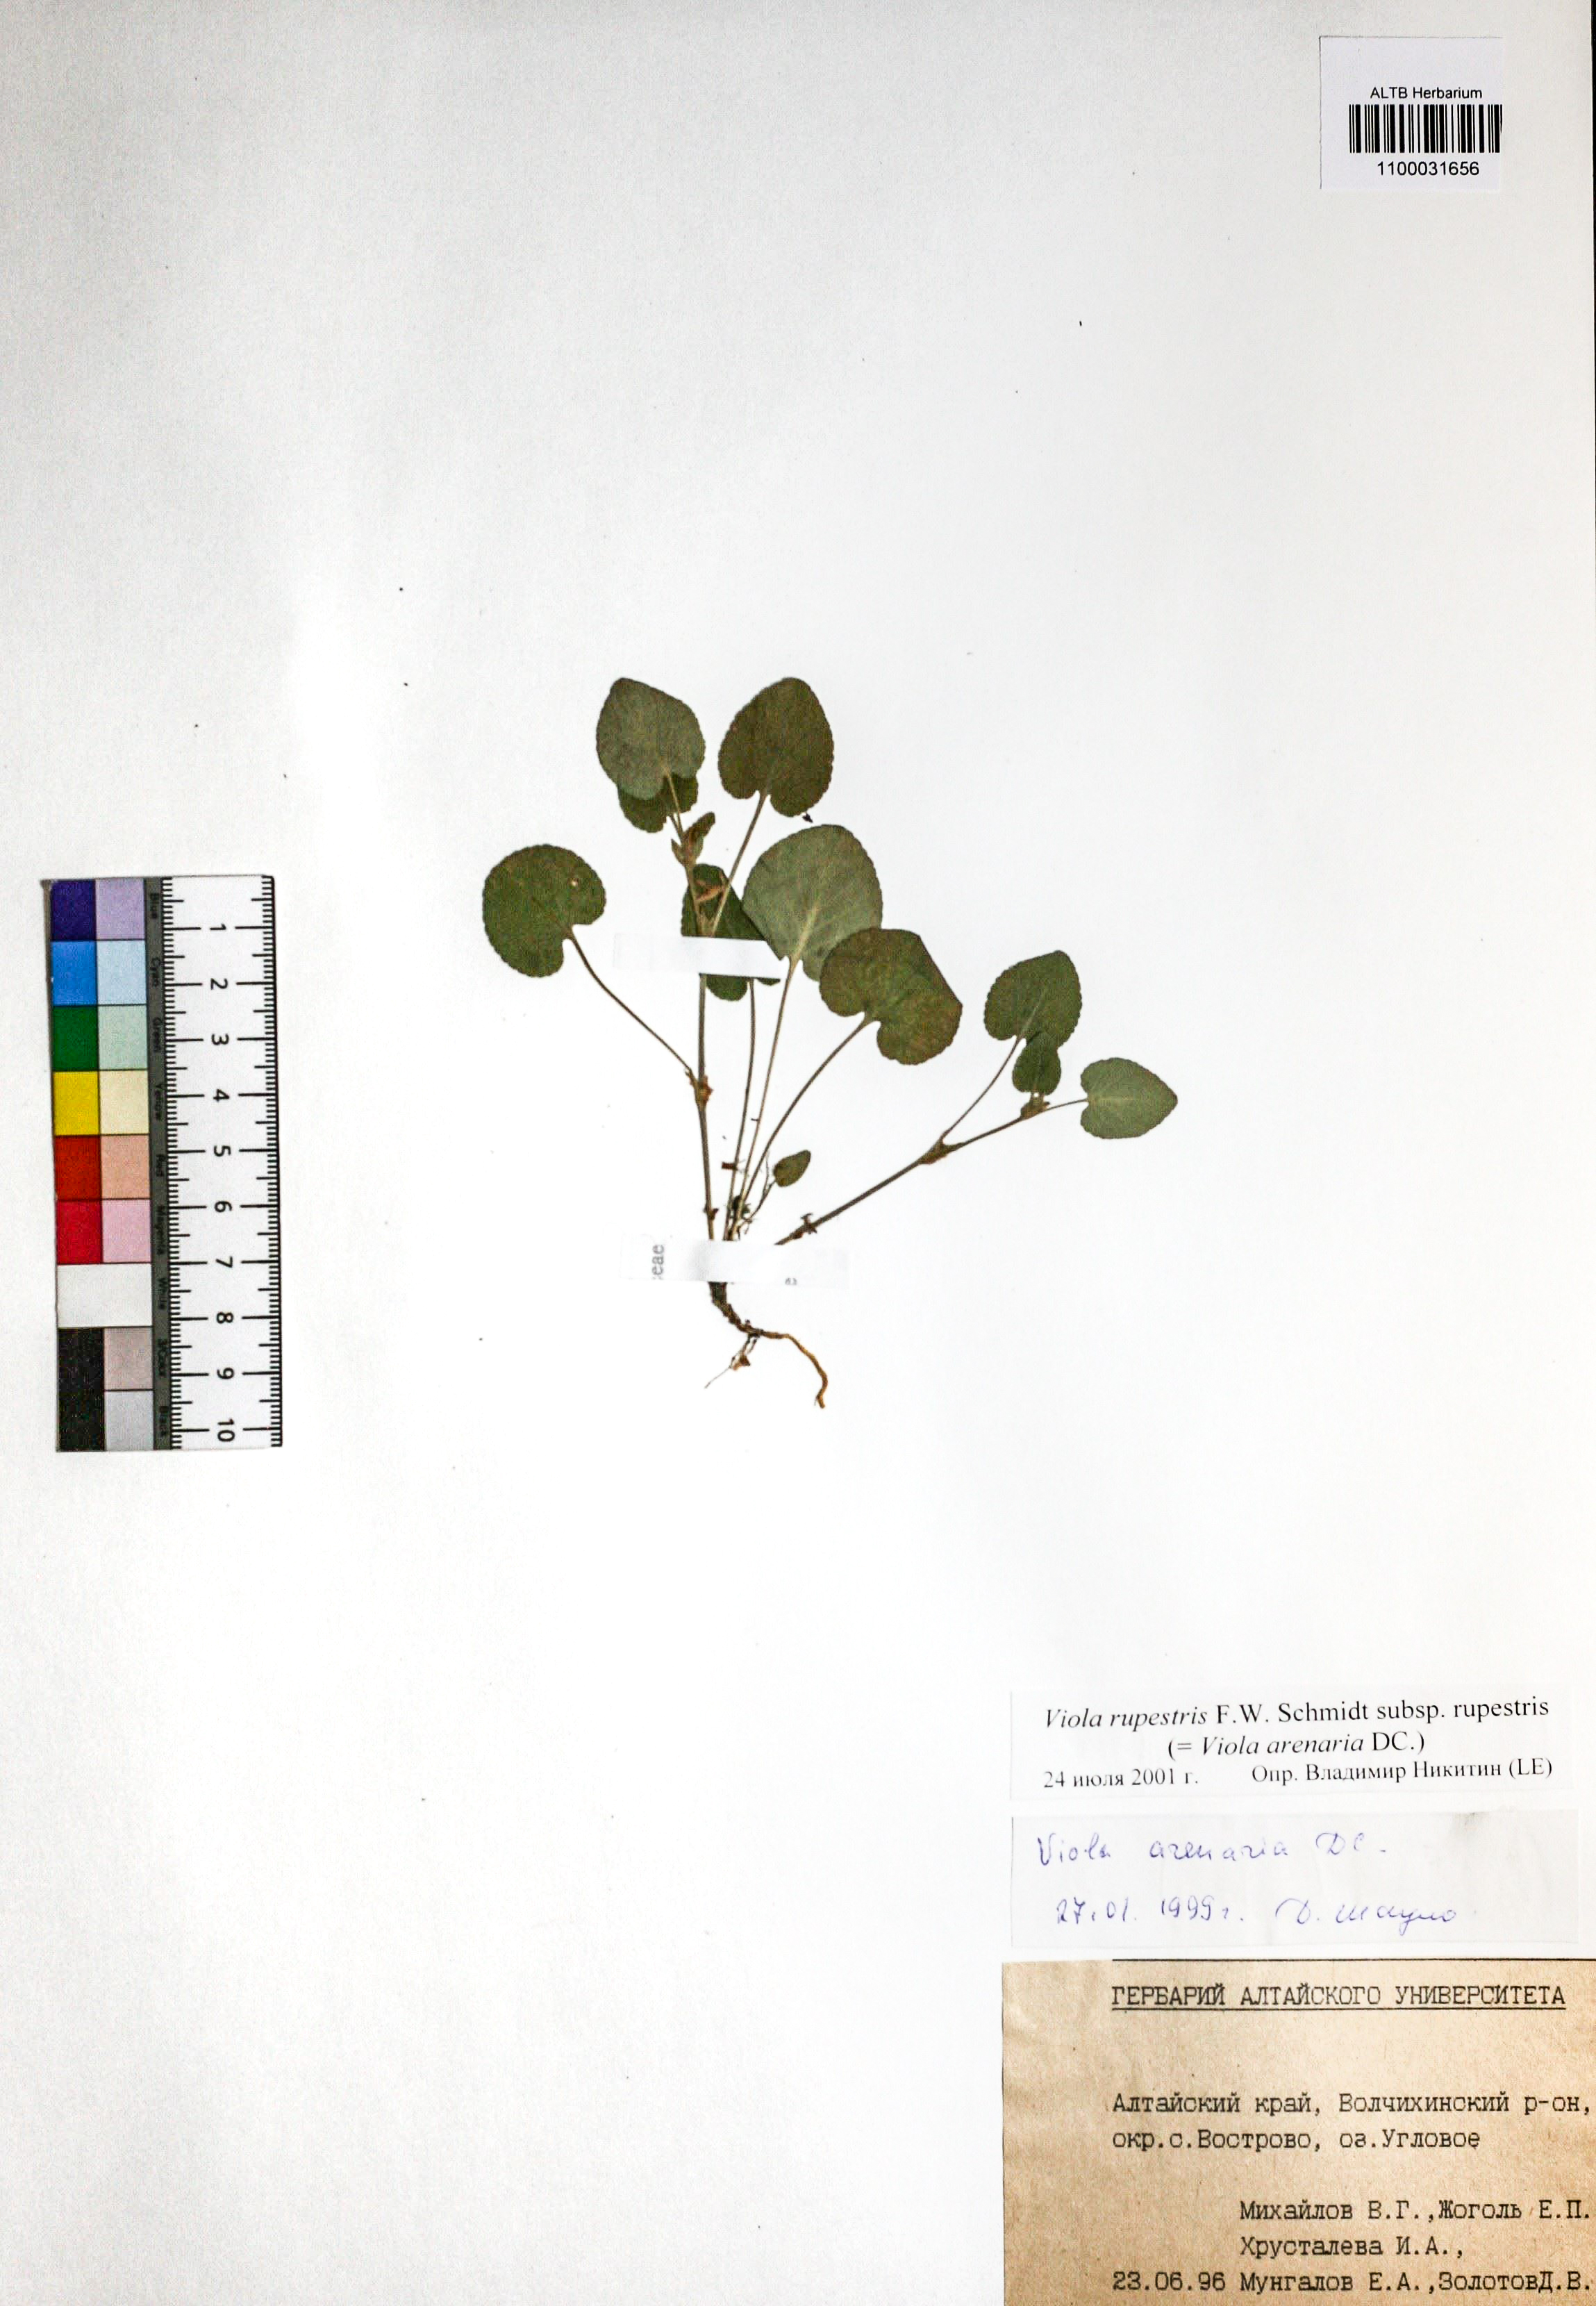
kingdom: Plantae
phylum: Tracheophyta
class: Magnoliopsida
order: Malpighiales
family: Violaceae
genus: Viola
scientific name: Viola rupestris
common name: Teesdale violet
